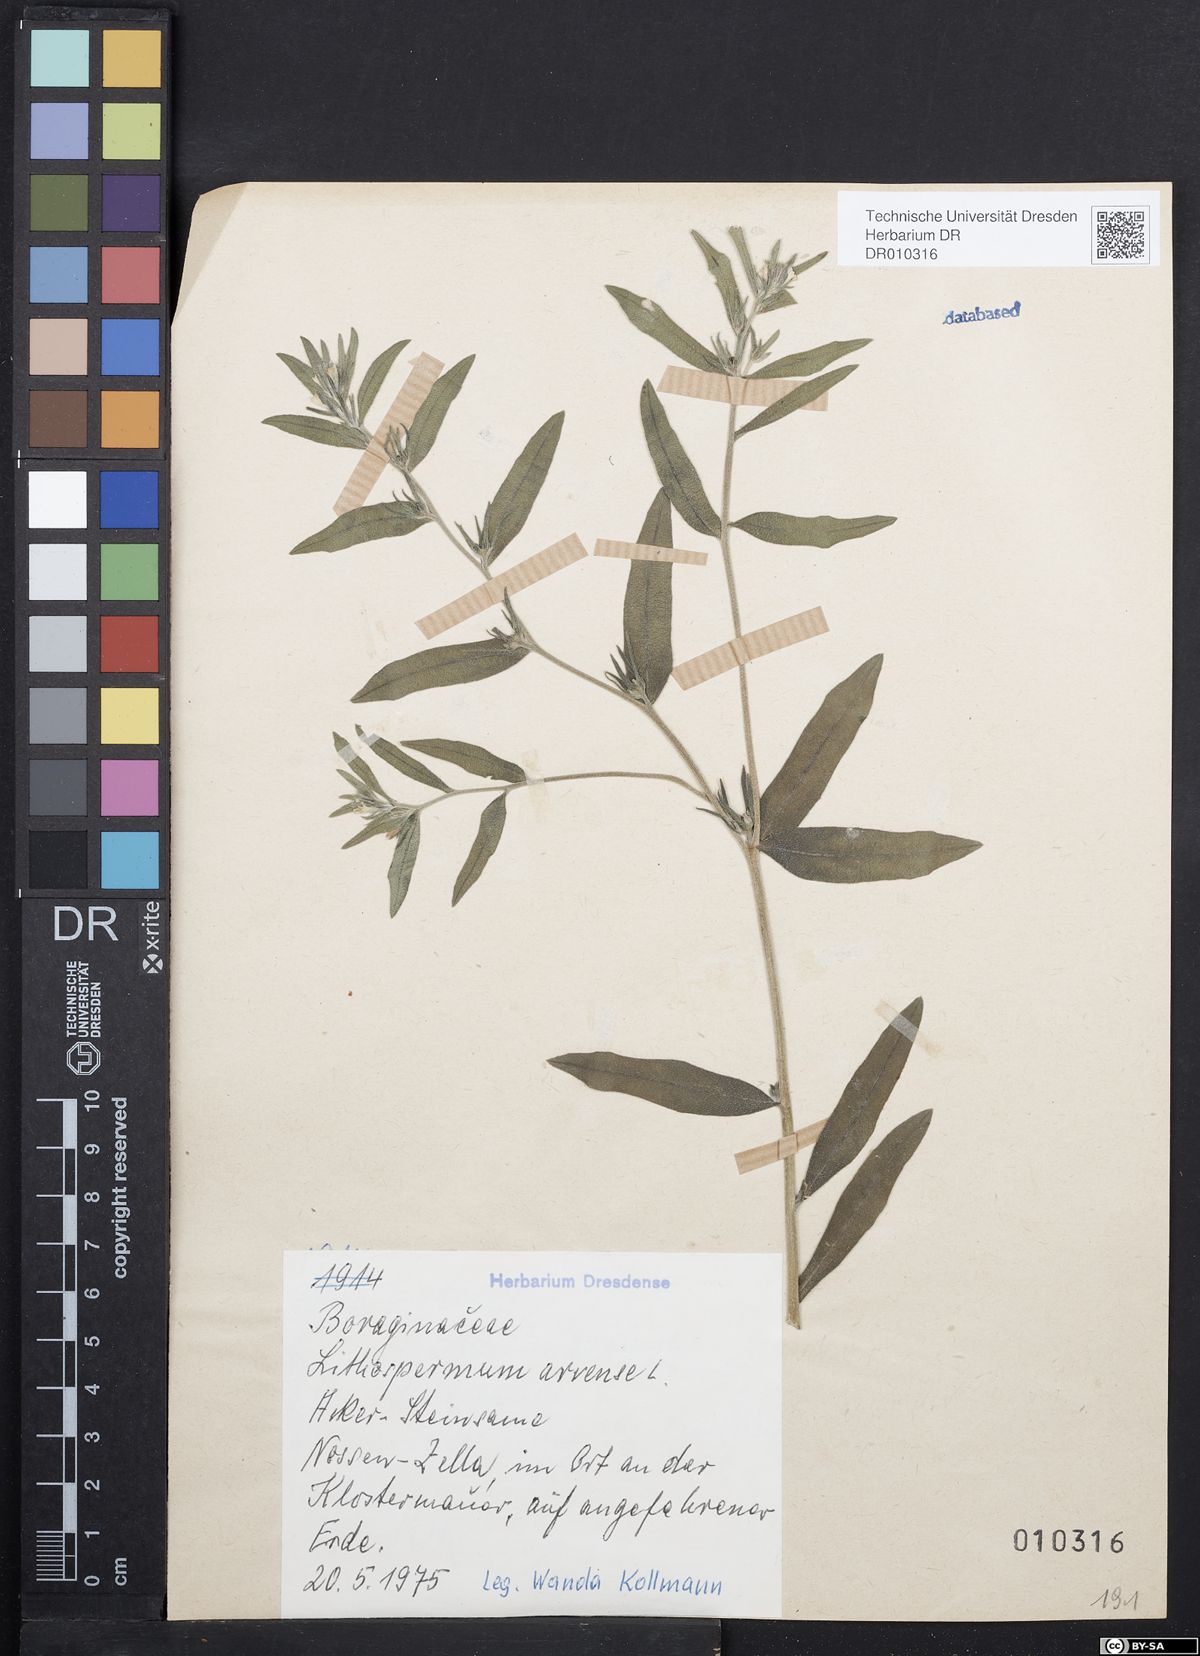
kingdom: Plantae
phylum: Tracheophyta
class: Magnoliopsida
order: Boraginales
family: Boraginaceae
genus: Buglossoides
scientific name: Buglossoides arvensis
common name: Corn gromwell
